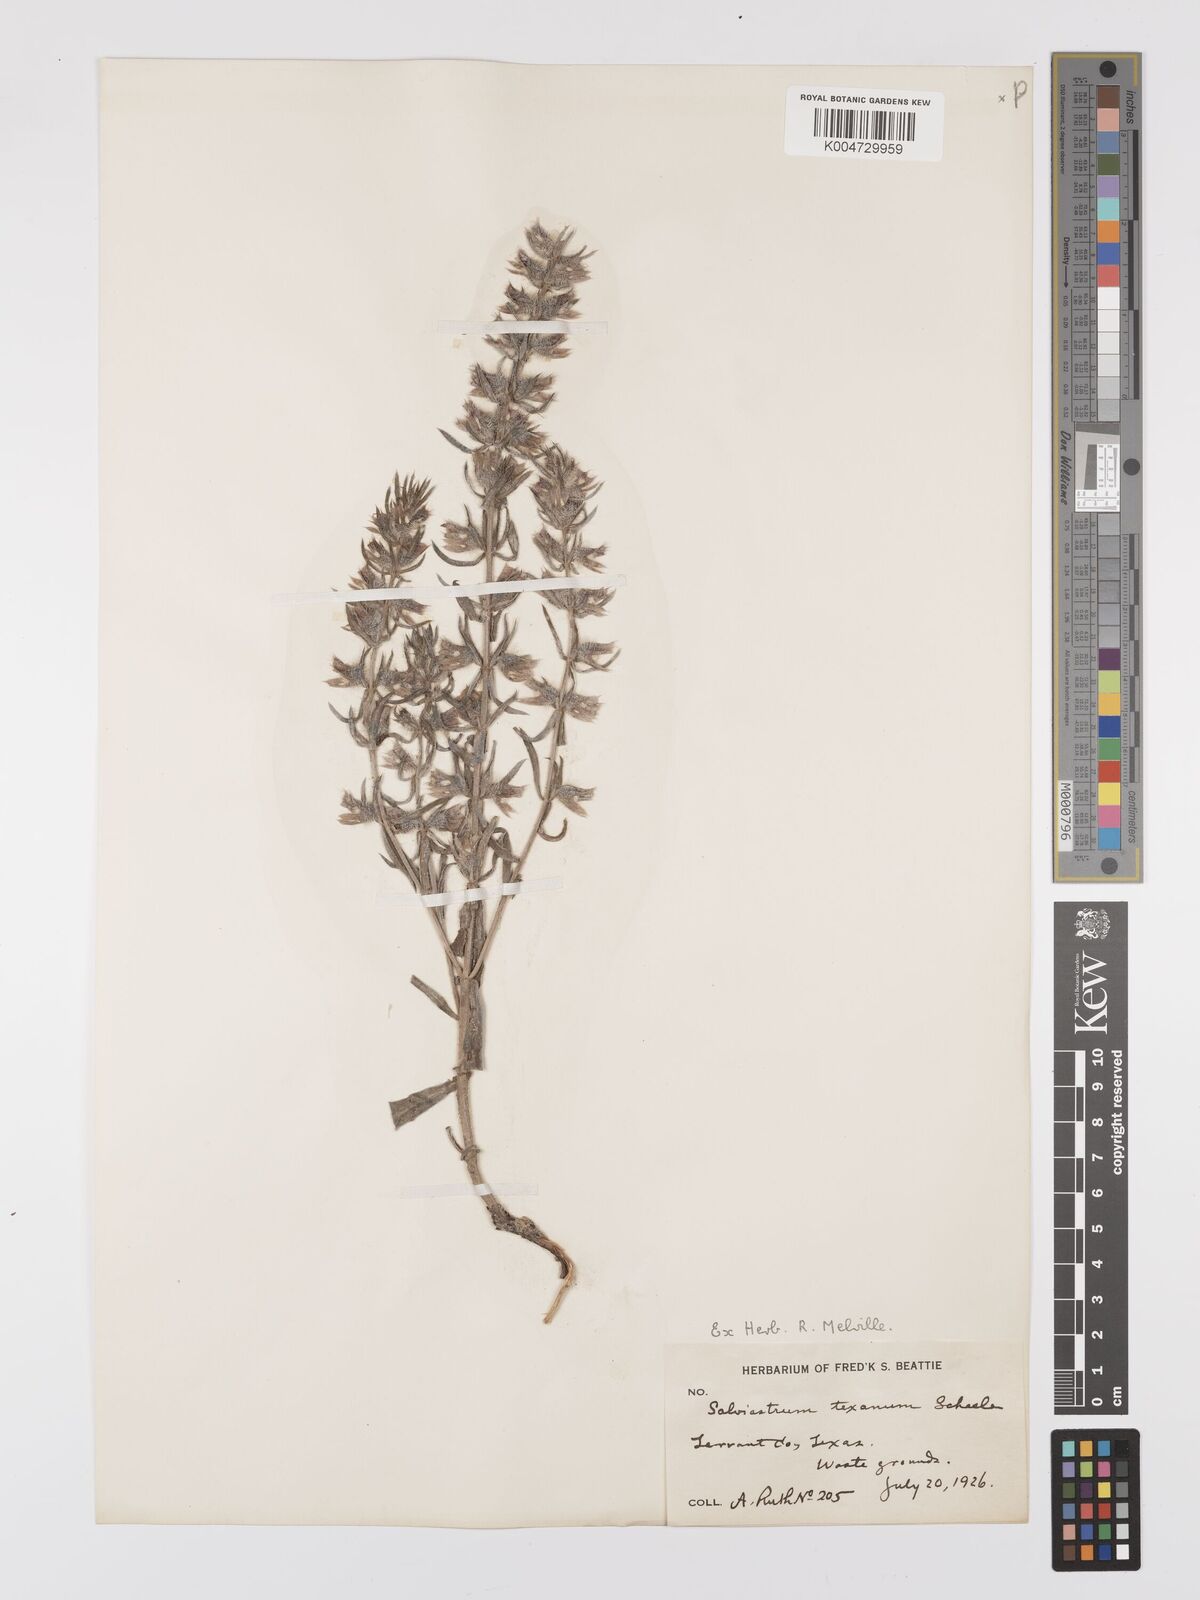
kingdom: Plantae
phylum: Tracheophyta
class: Magnoliopsida
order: Lamiales
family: Lamiaceae
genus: Salvia
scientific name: Salvia texana
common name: Texas sage
